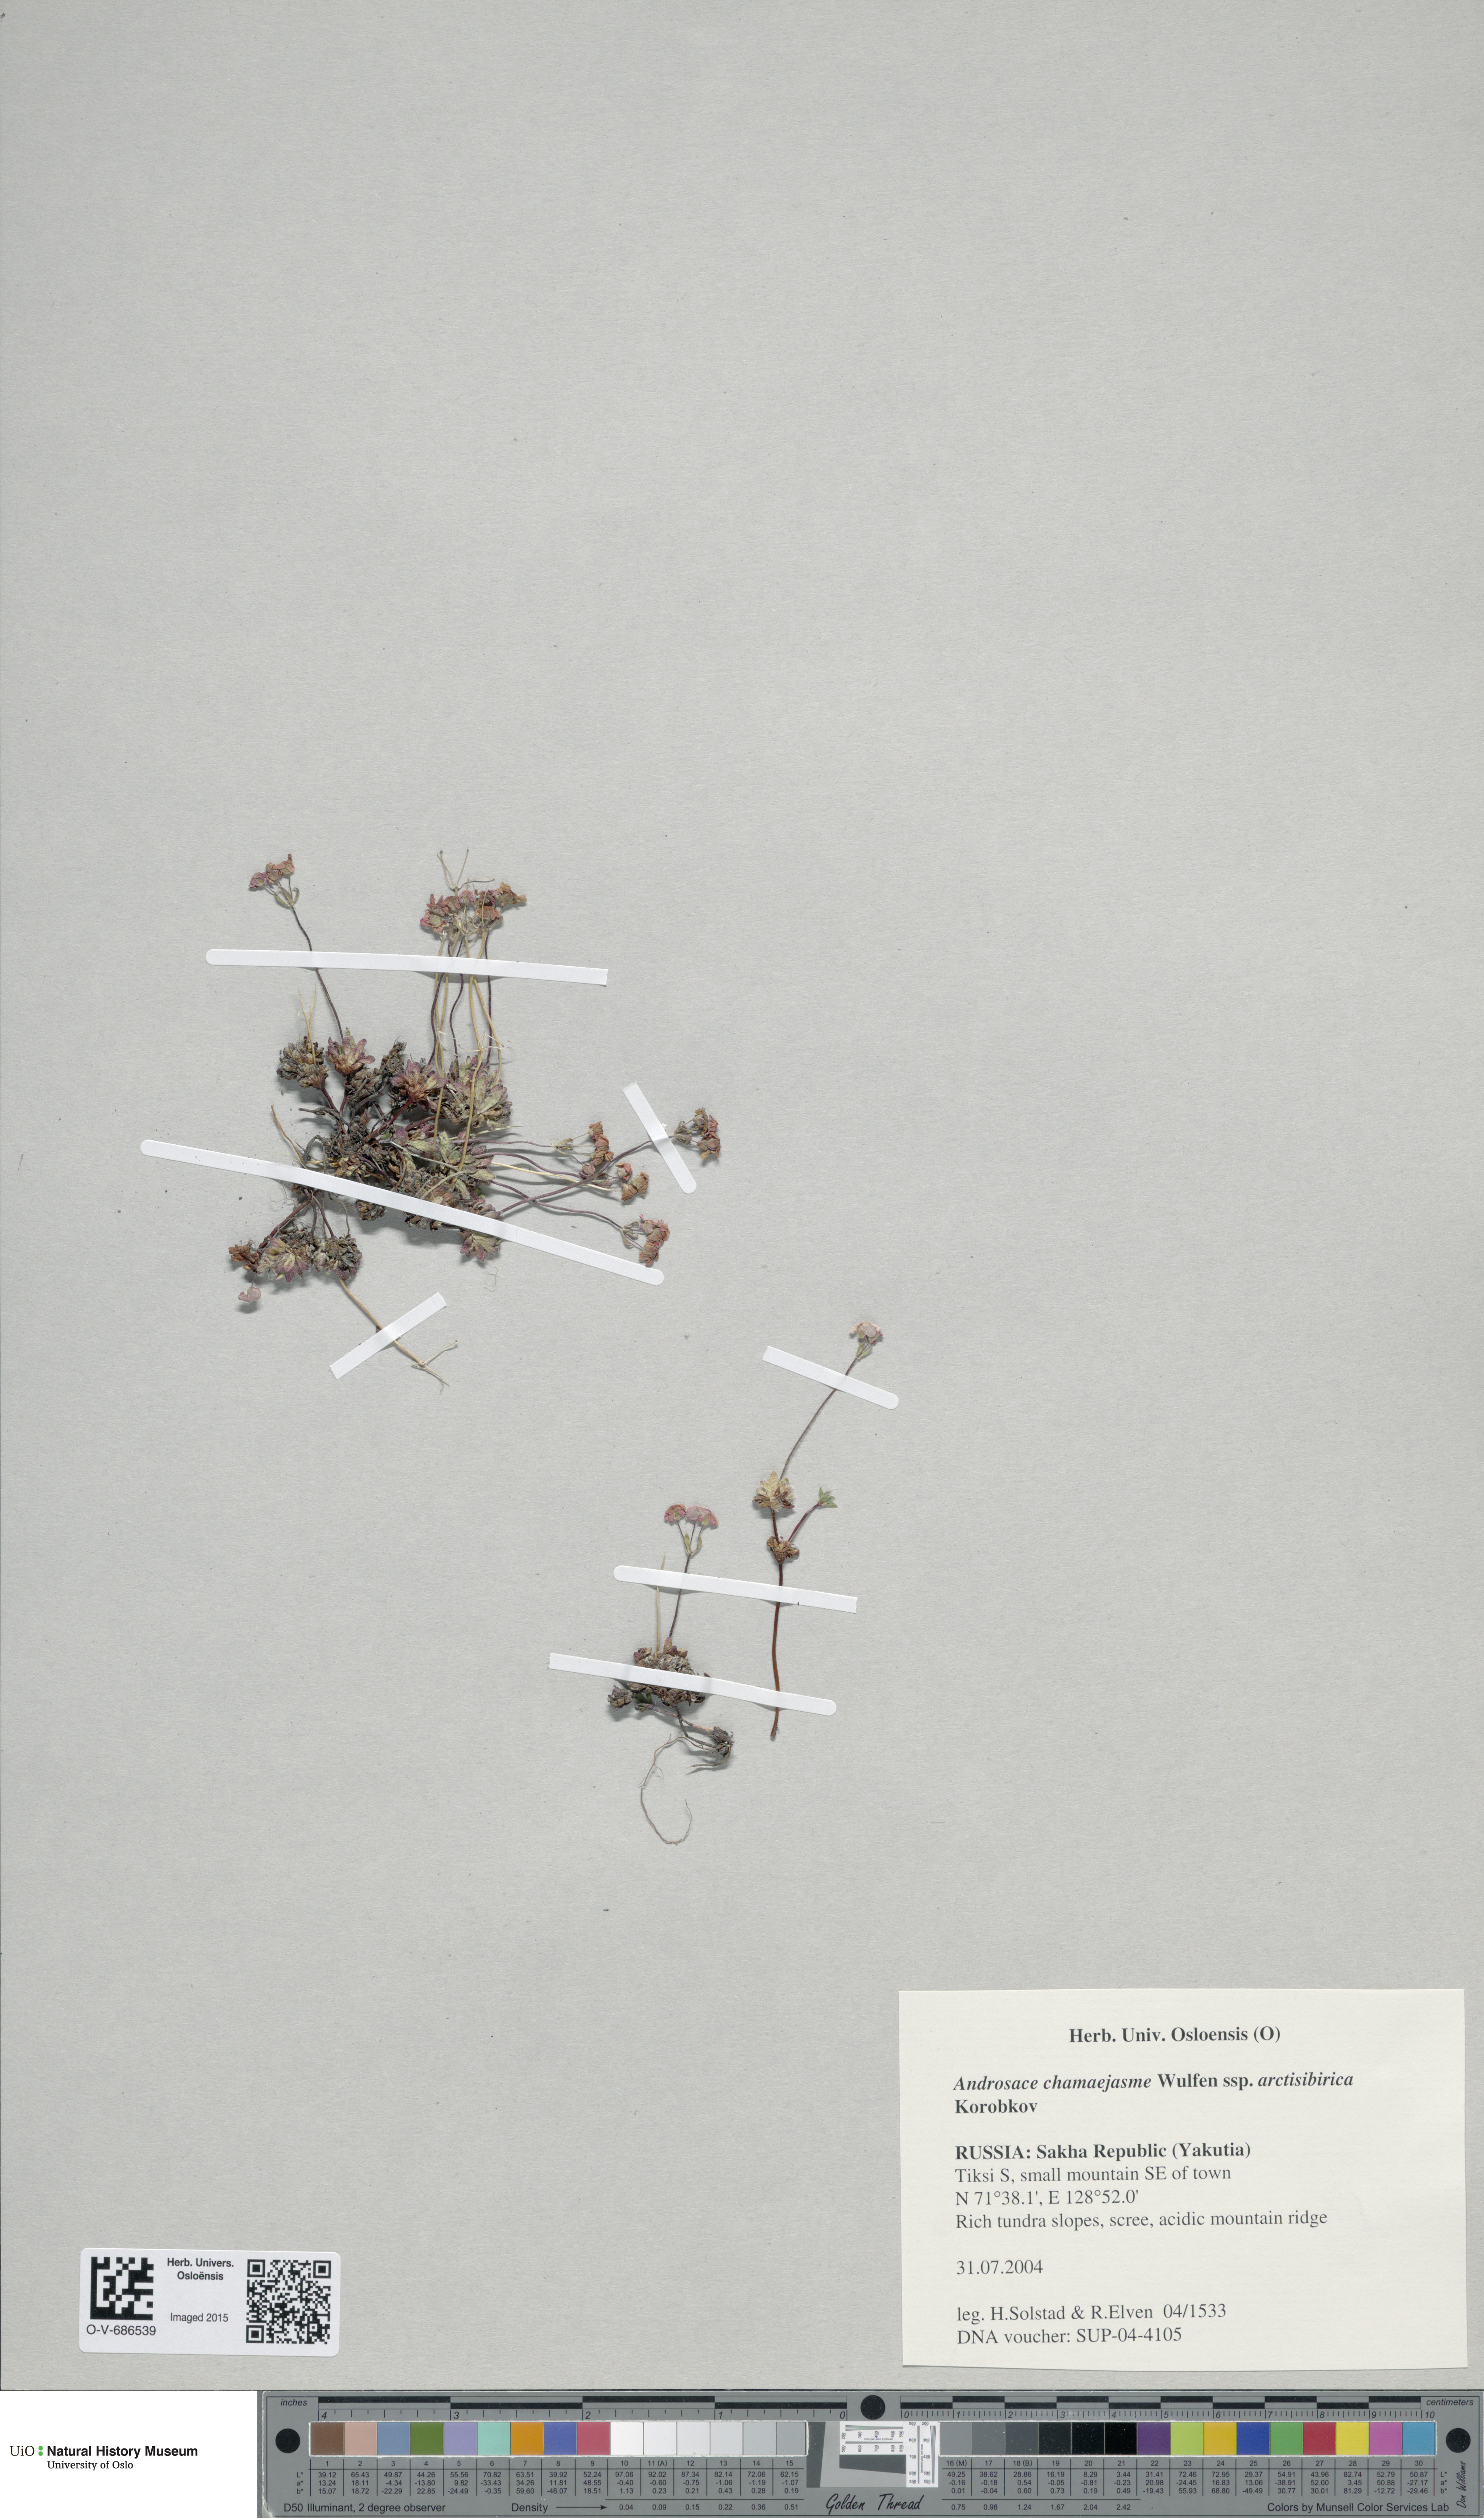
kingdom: Plantae
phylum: Tracheophyta
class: Magnoliopsida
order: Ericales
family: Primulaceae
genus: Androsace
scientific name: Androsace chamaejasme
